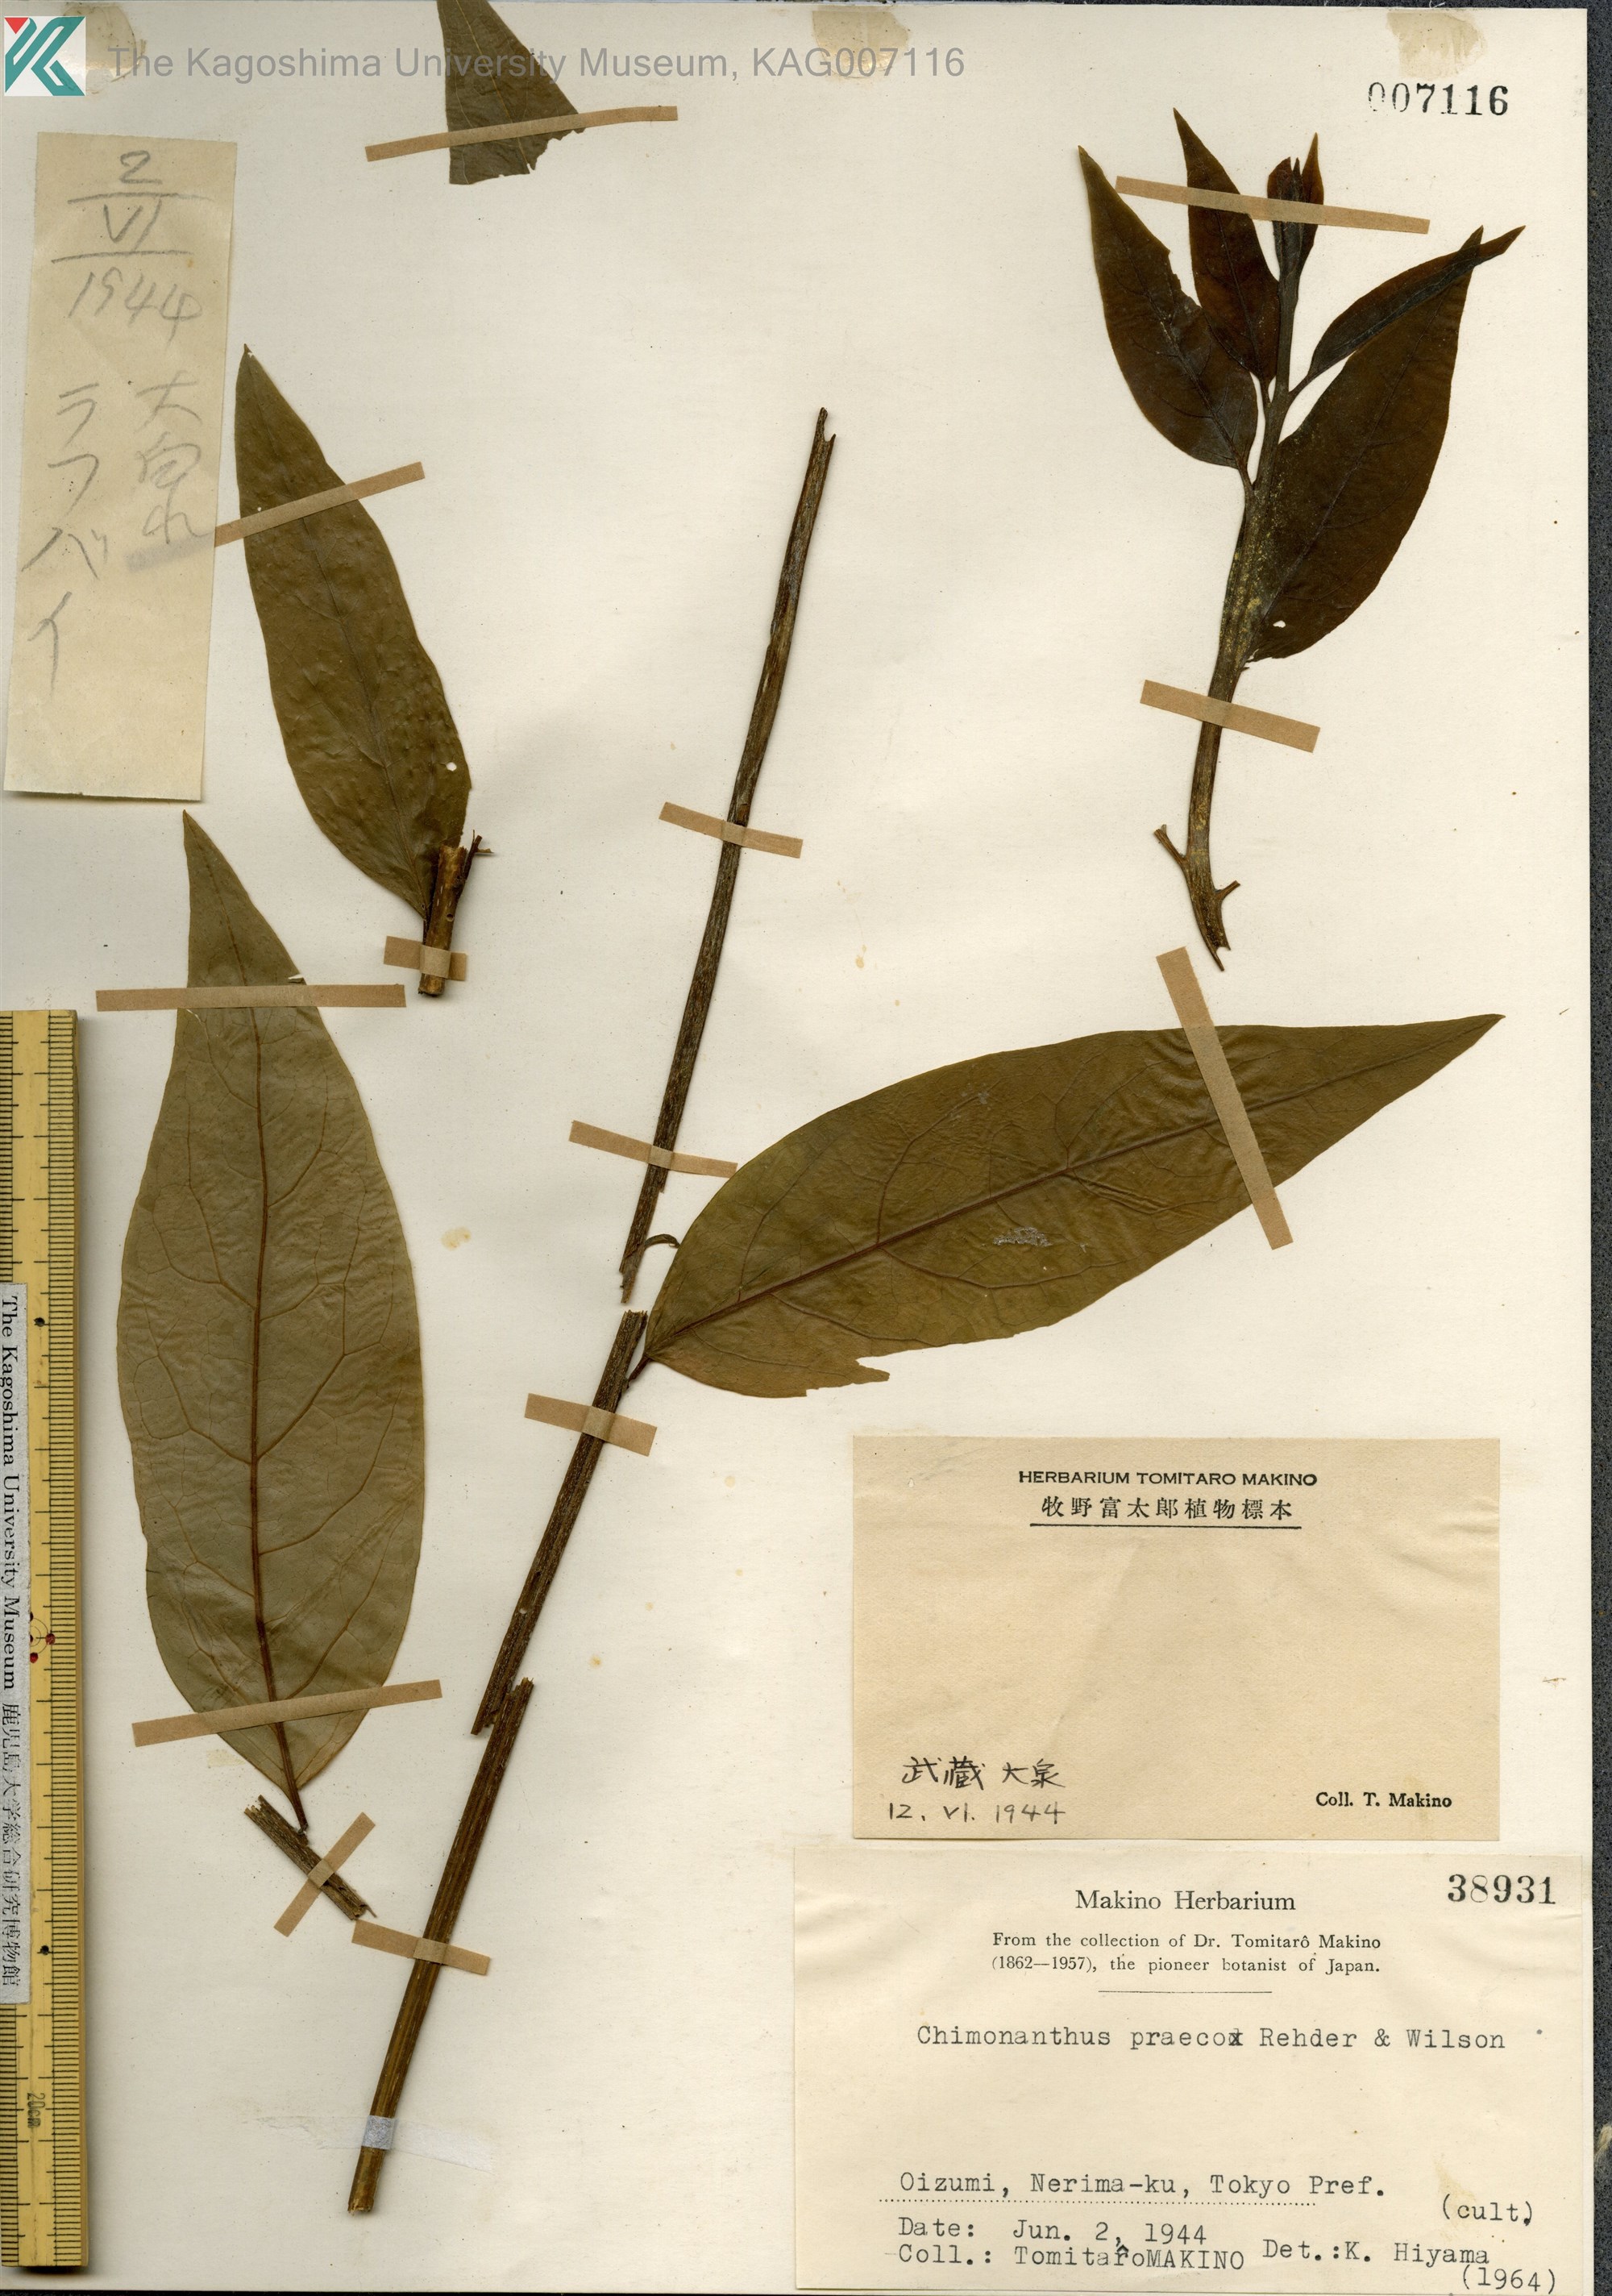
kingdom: Plantae
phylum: Tracheophyta
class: Magnoliopsida
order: Laurales
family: Calycanthaceae
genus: Chimonanthus
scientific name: Chimonanthus praecox
